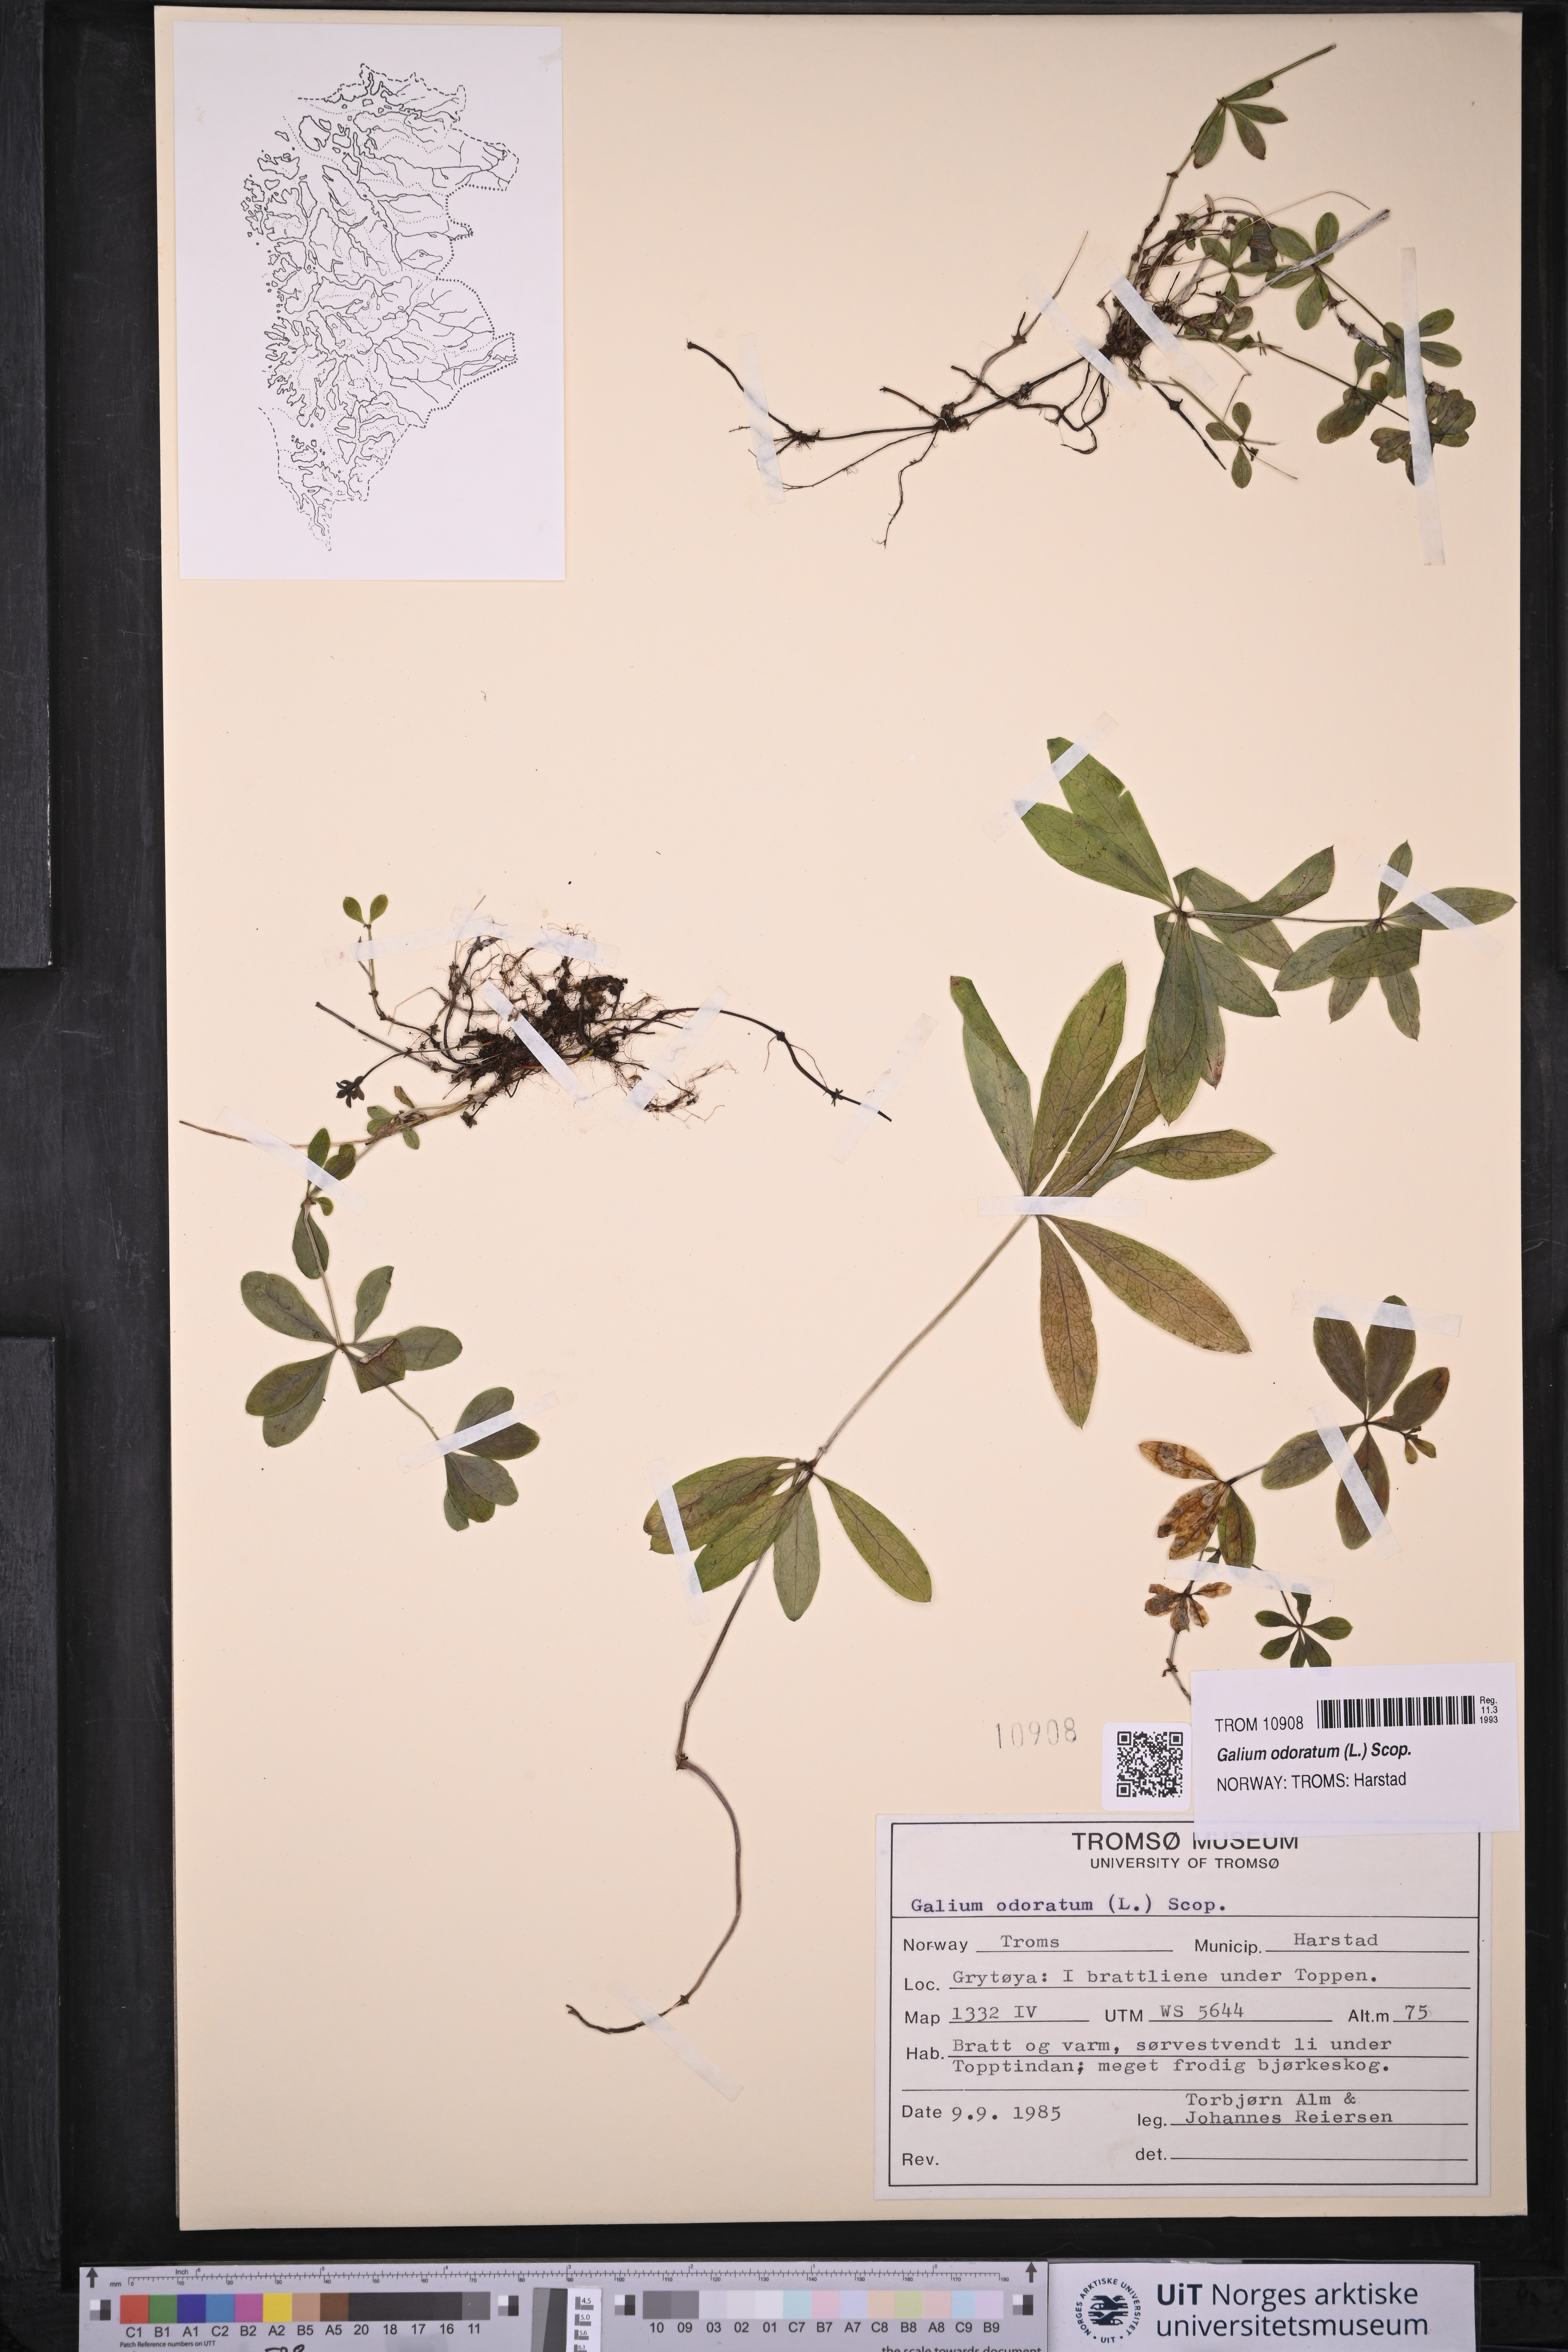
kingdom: Plantae
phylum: Tracheophyta
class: Magnoliopsida
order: Gentianales
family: Rubiaceae
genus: Galium
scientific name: Galium odoratum
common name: Sweet woodruff
